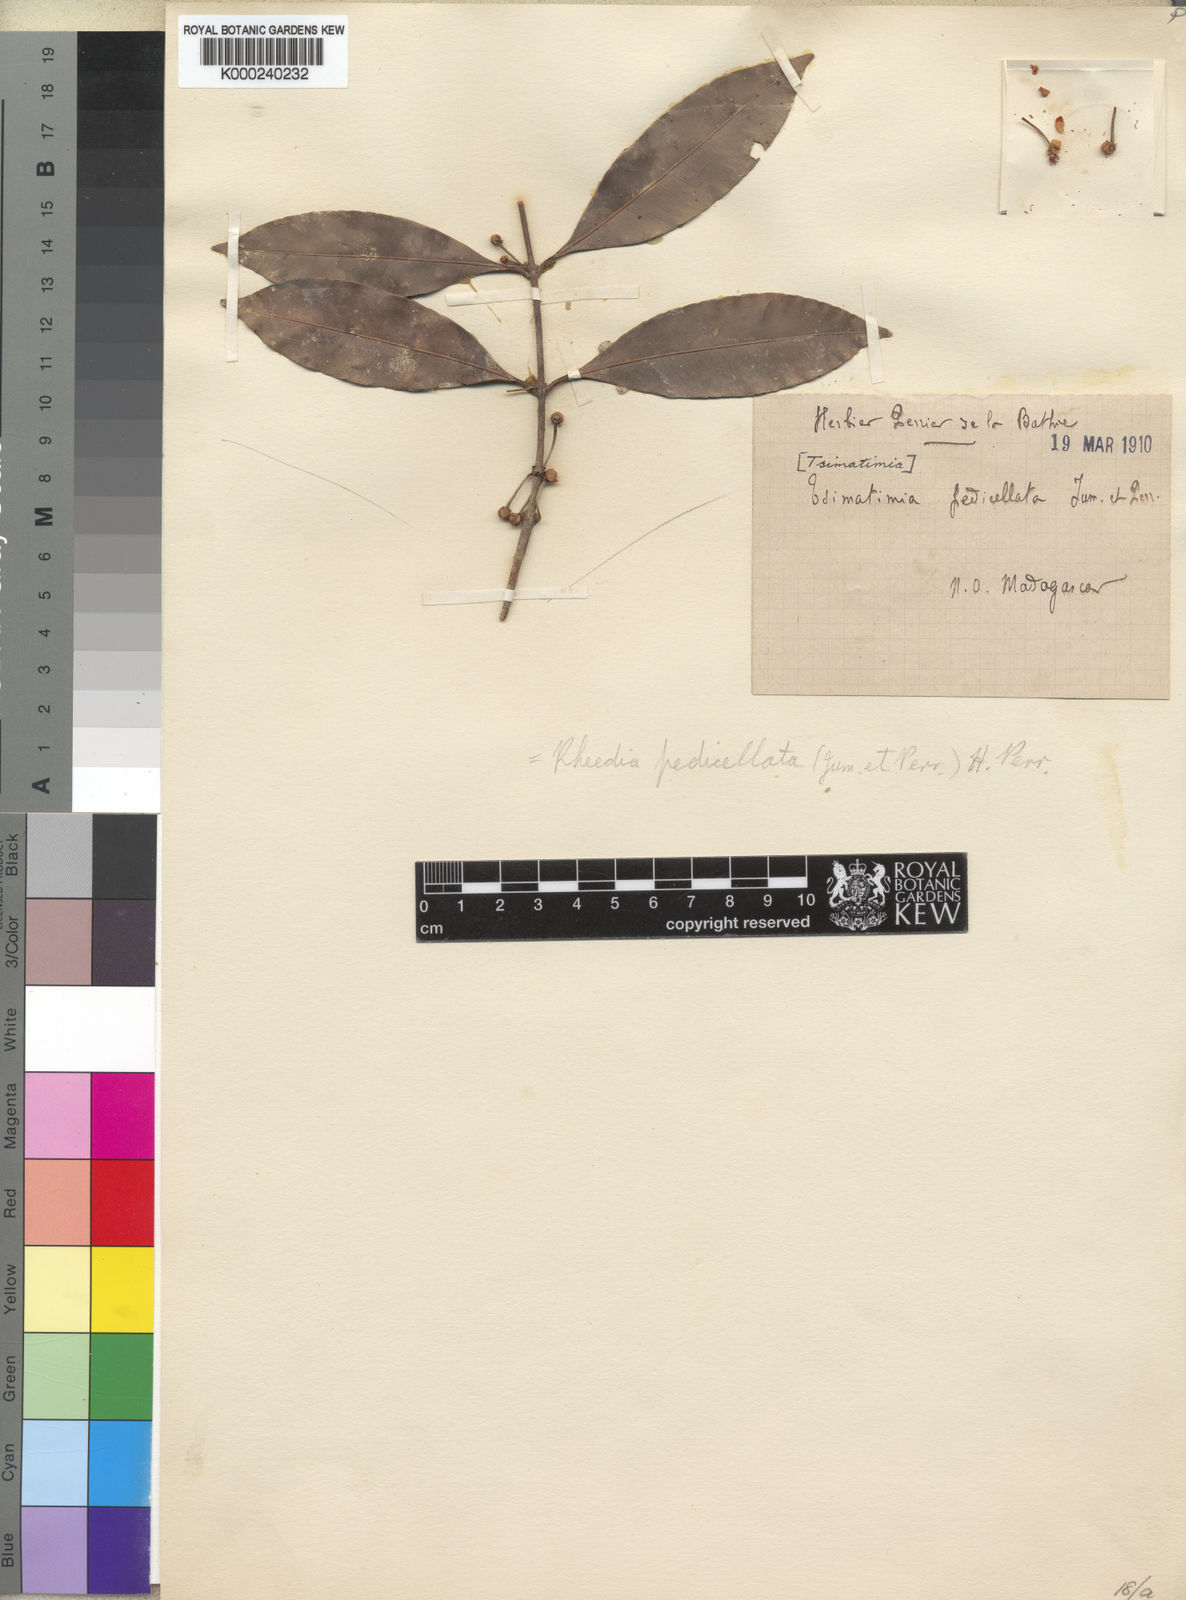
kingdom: Plantae
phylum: Tracheophyta
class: Magnoliopsida
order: Malpighiales
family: Clusiaceae
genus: Garcinia
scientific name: Garcinia pseudoguttifera
